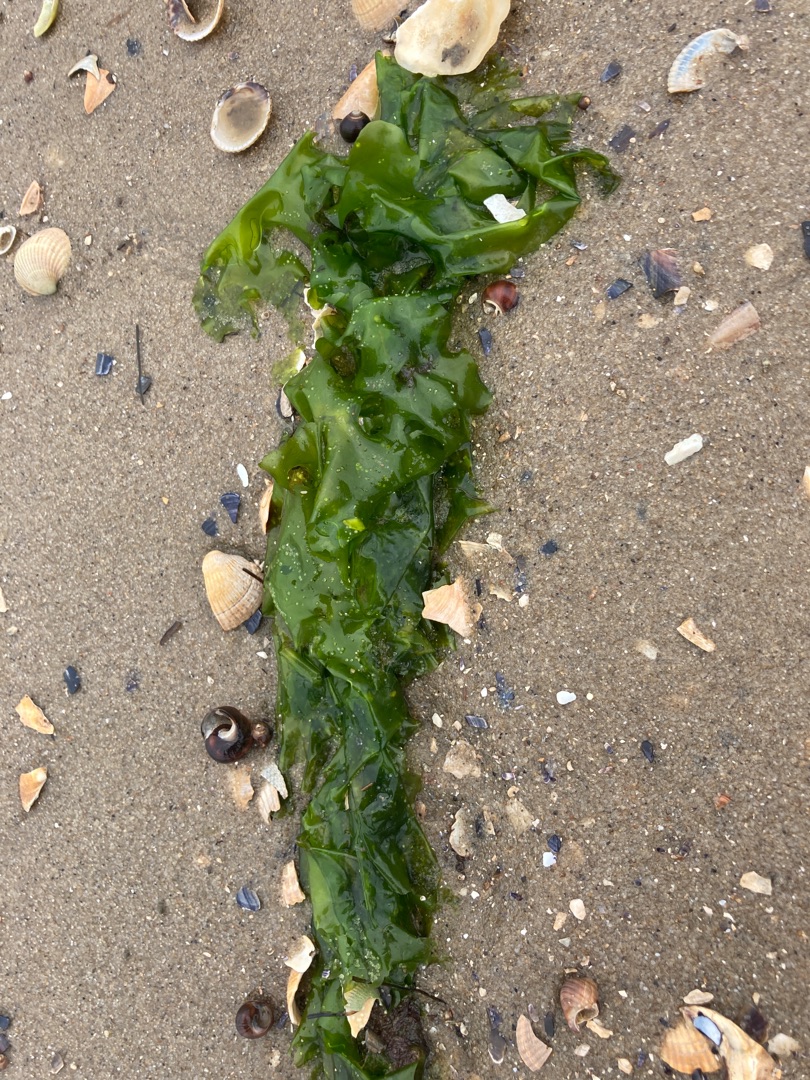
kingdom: Plantae
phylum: Chlorophyta
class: Ulvophyceae
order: Ulvales
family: Ulvaceae
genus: Ulva
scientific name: Ulva
